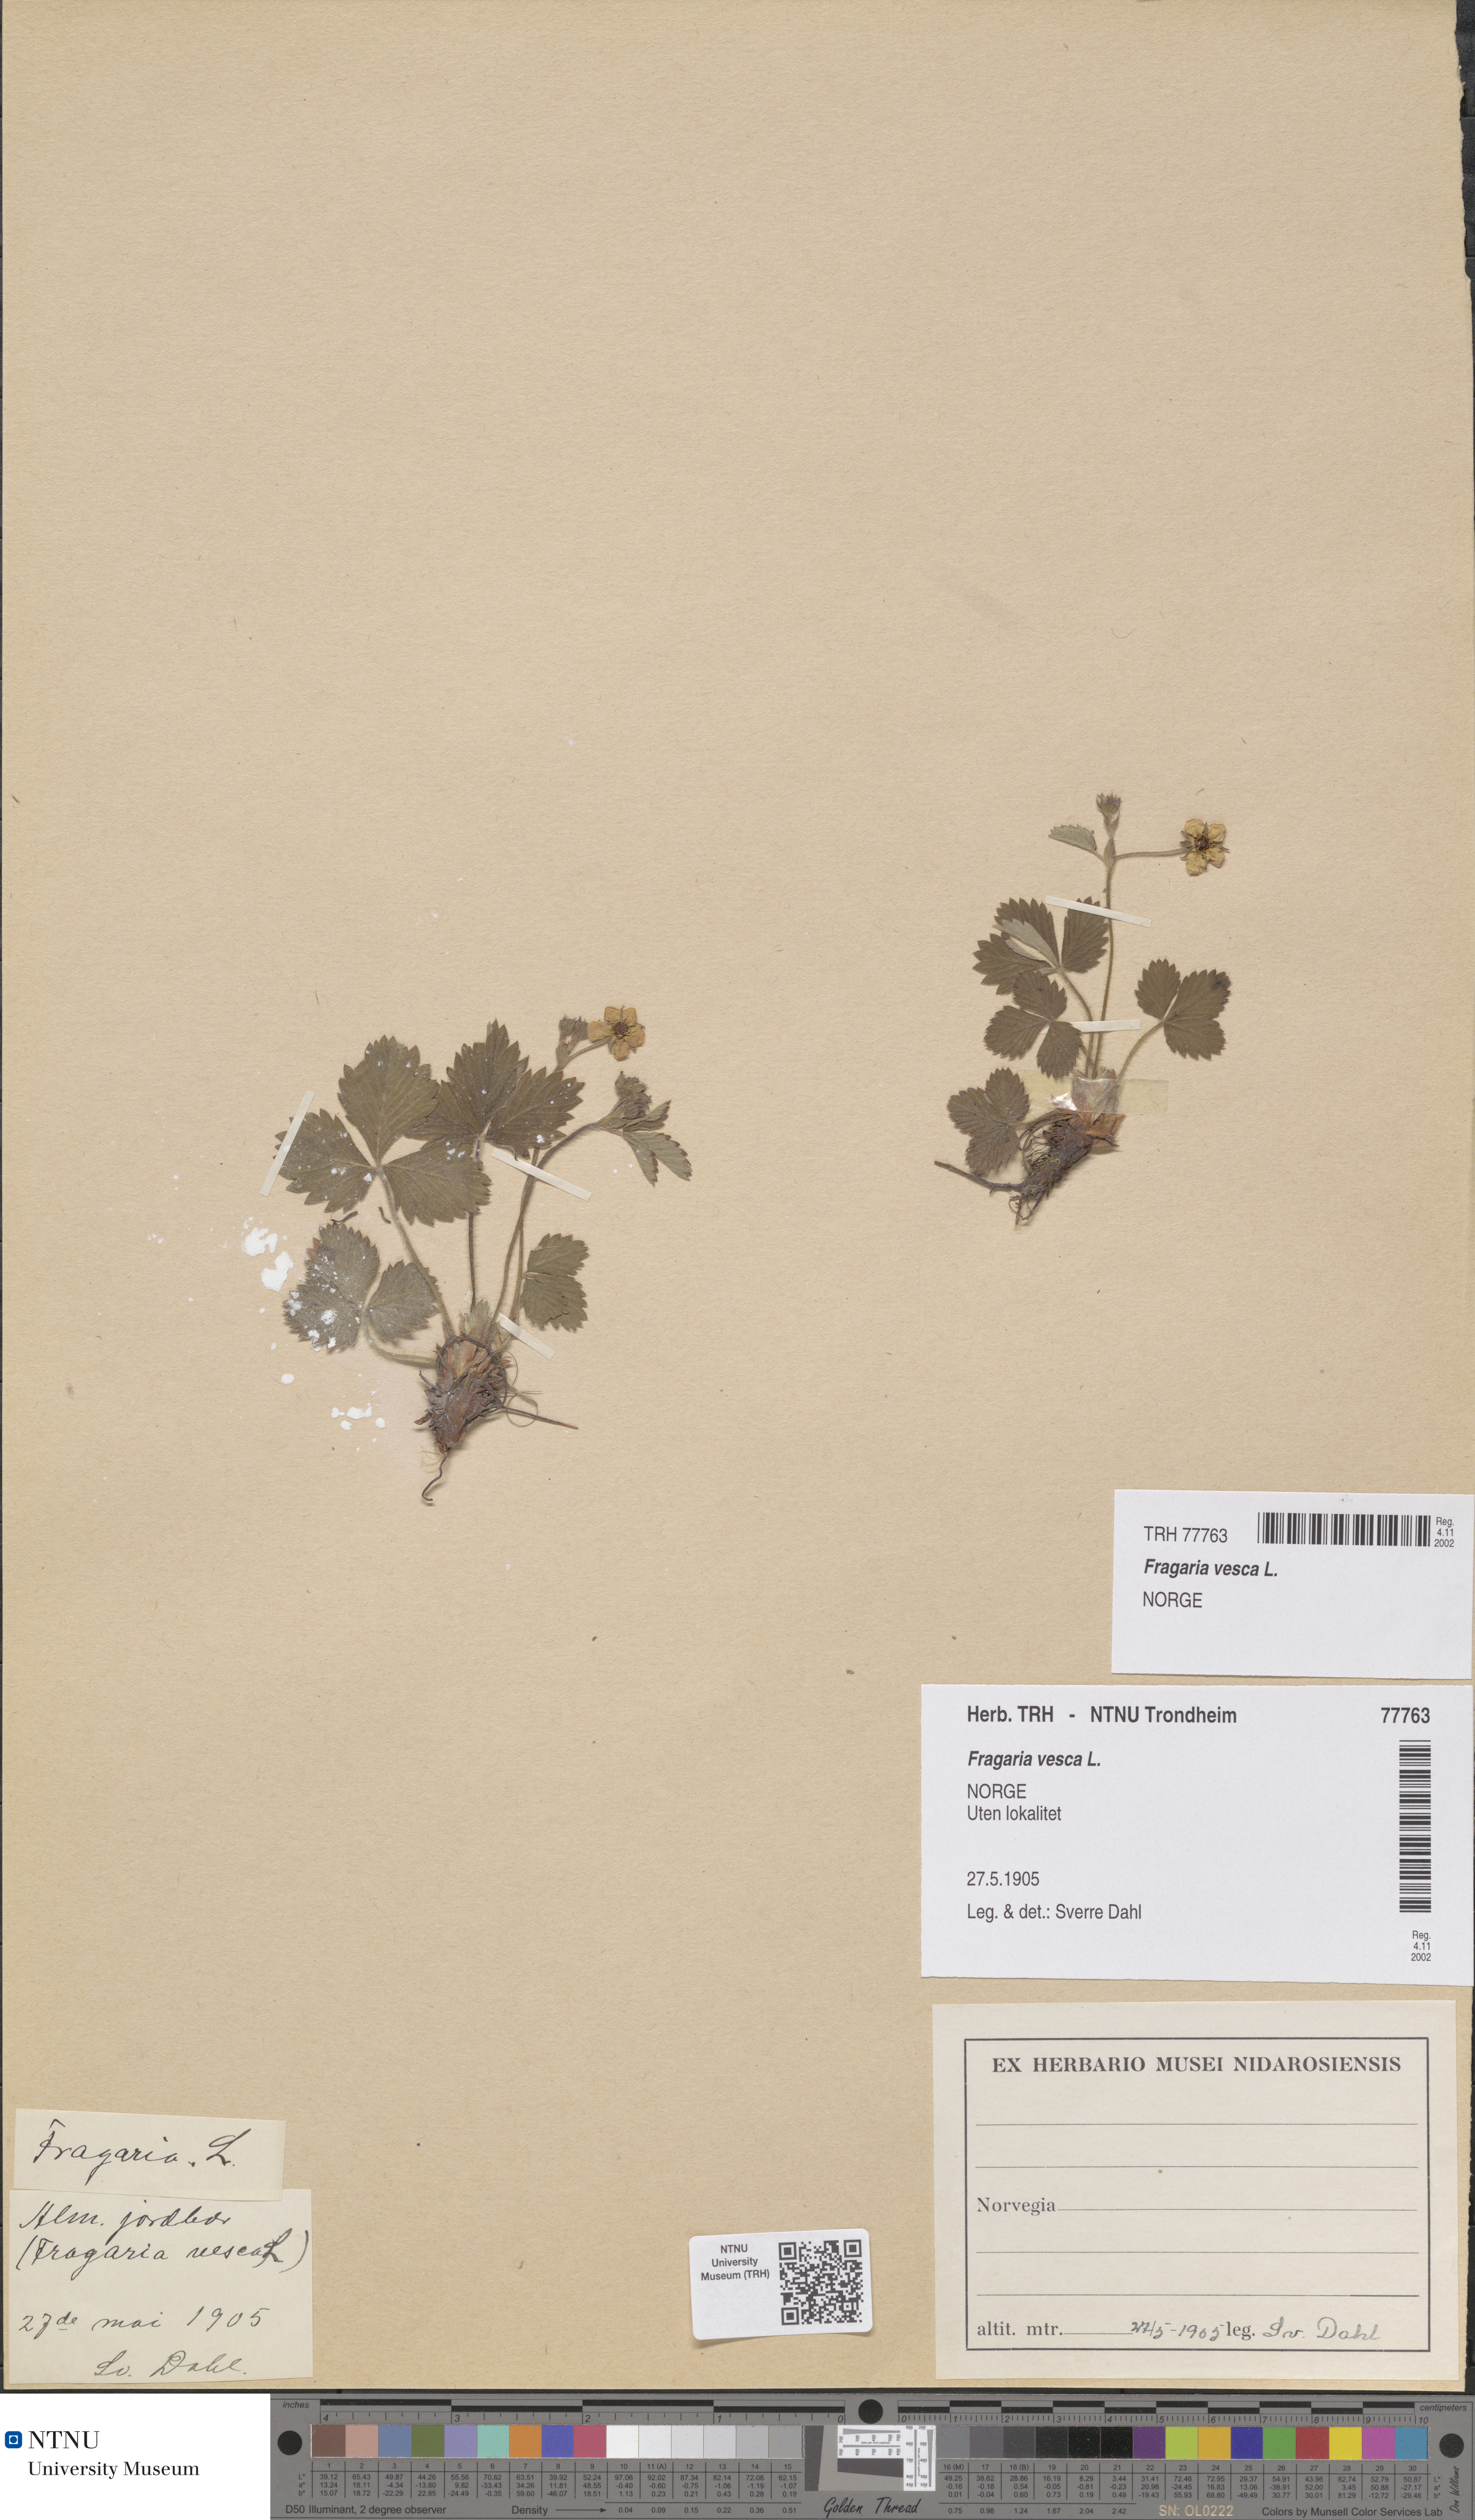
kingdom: Plantae
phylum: Tracheophyta
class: Magnoliopsida
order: Rosales
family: Rosaceae
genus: Fragaria
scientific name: Fragaria vesca
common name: Wild strawberry
